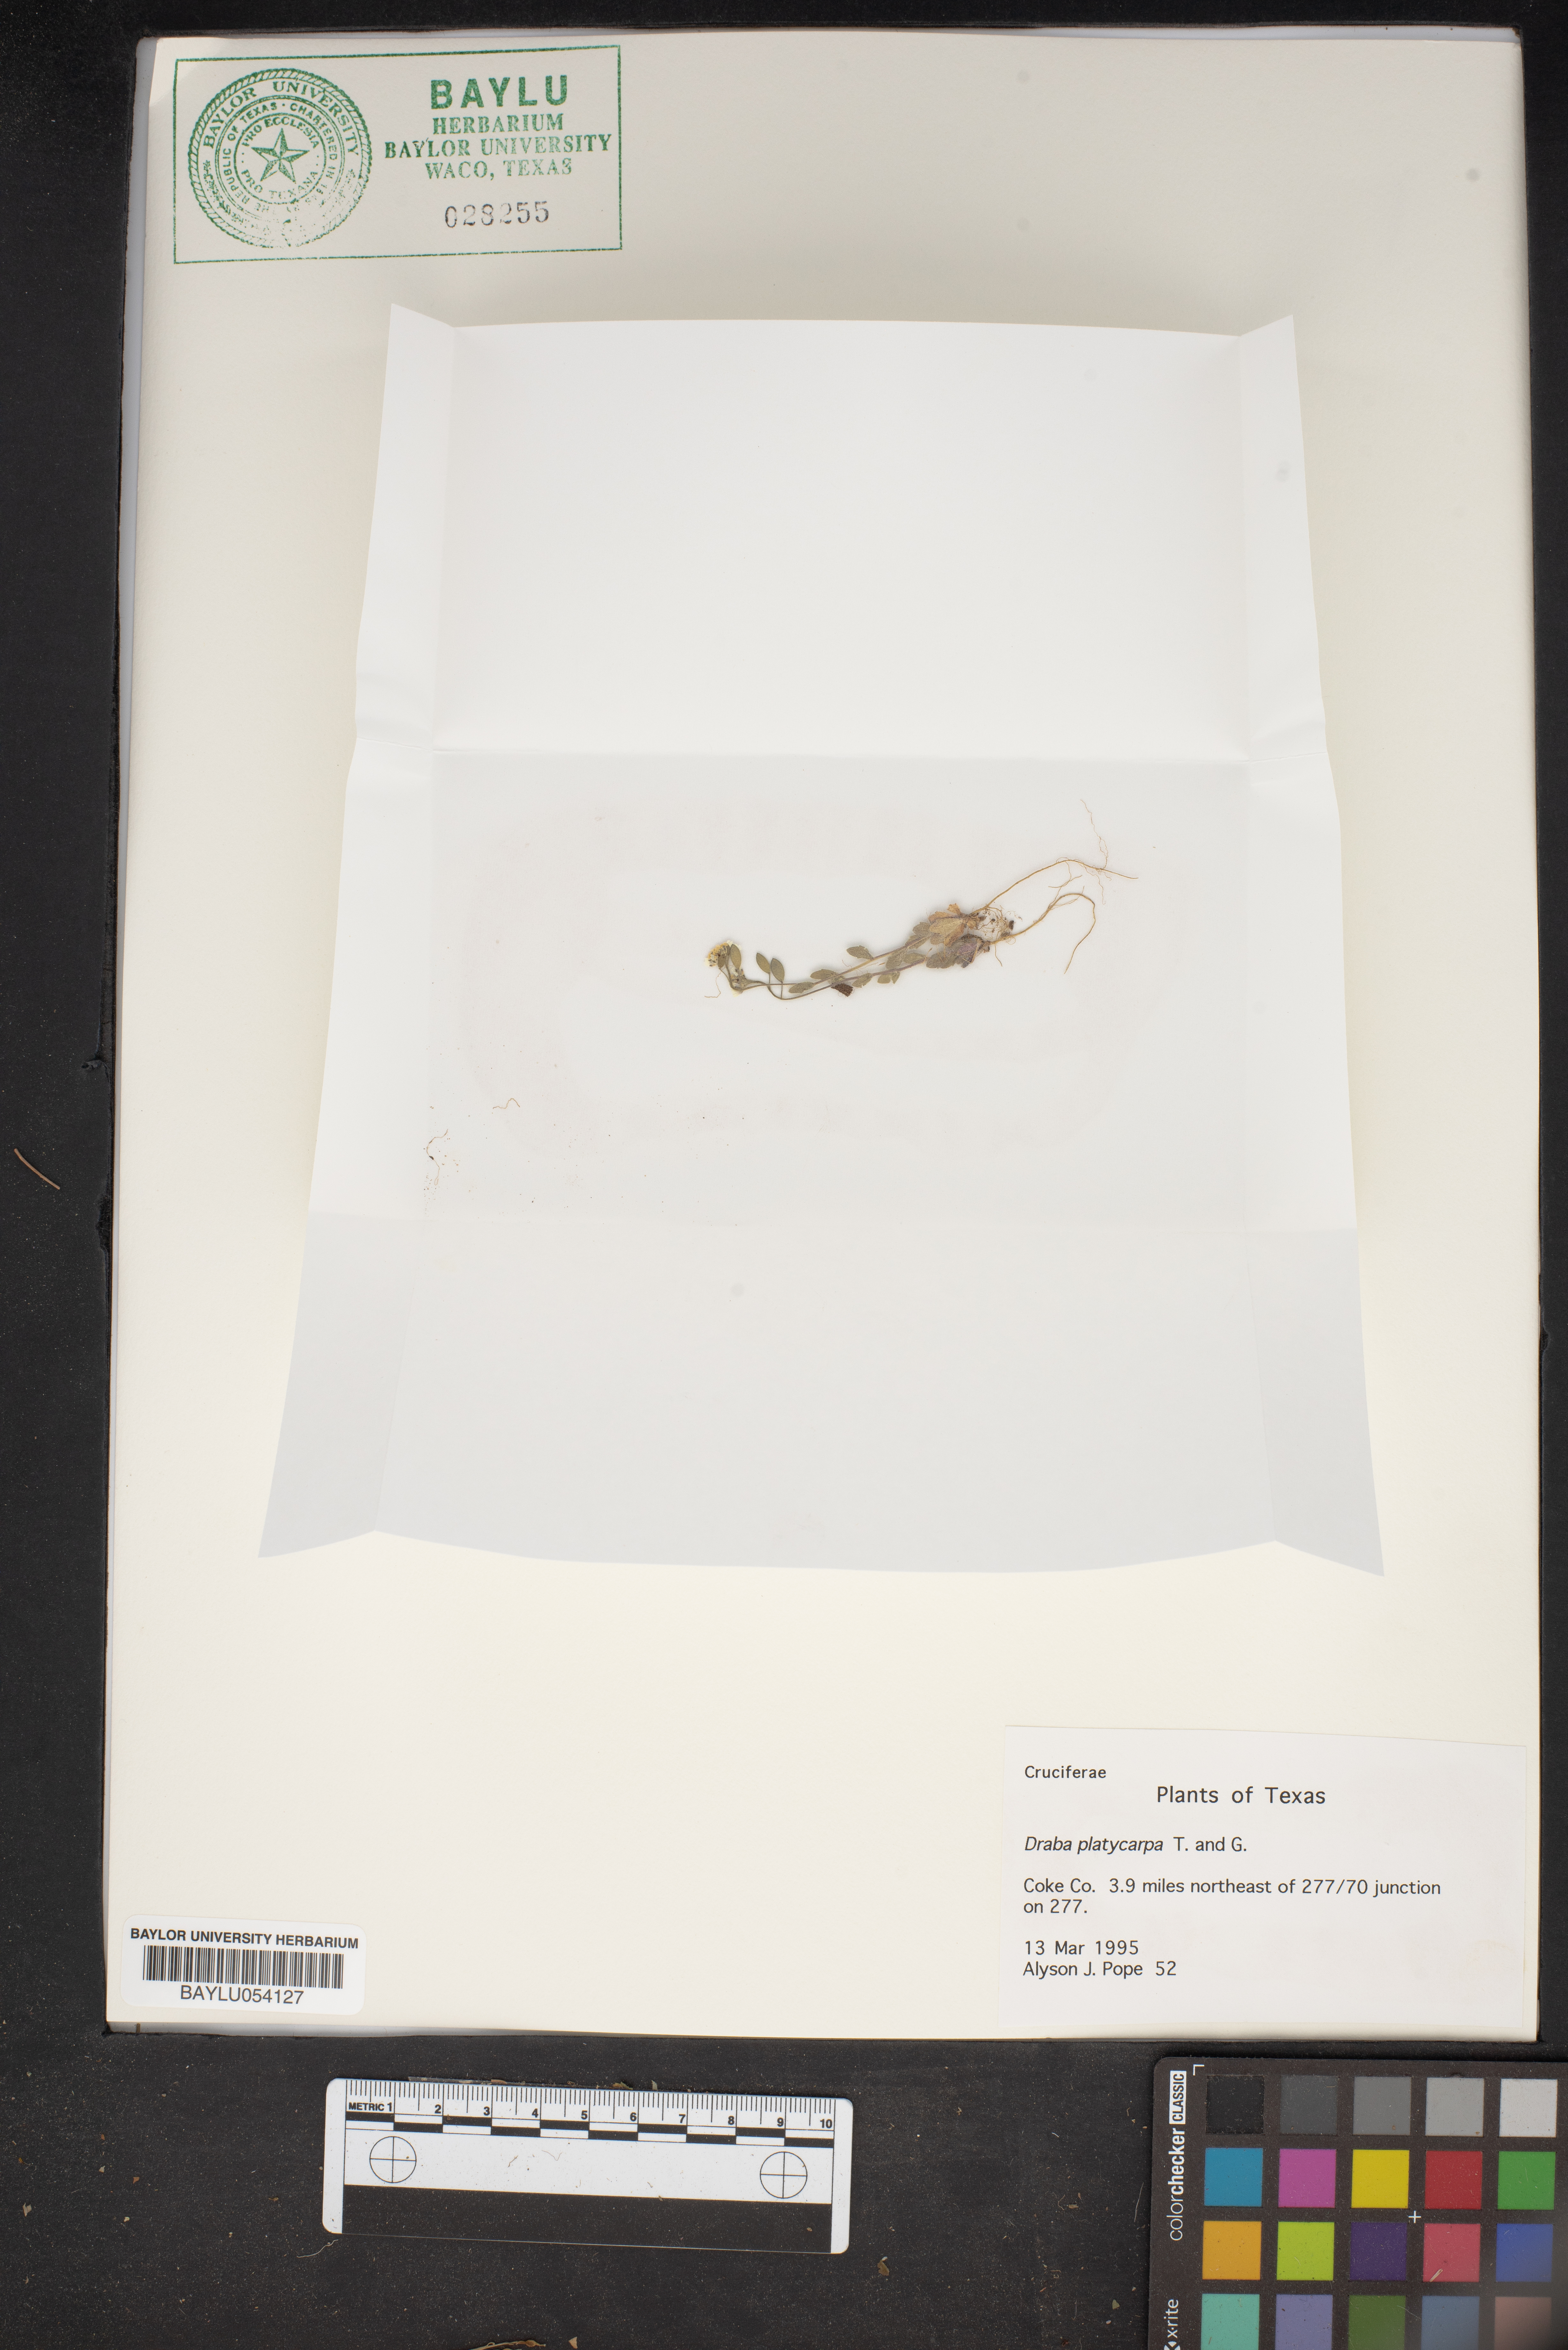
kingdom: Plantae
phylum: Tracheophyta
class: Magnoliopsida
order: Brassicales
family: Brassicaceae
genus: Tomostima
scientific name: Tomostima platycarpa
